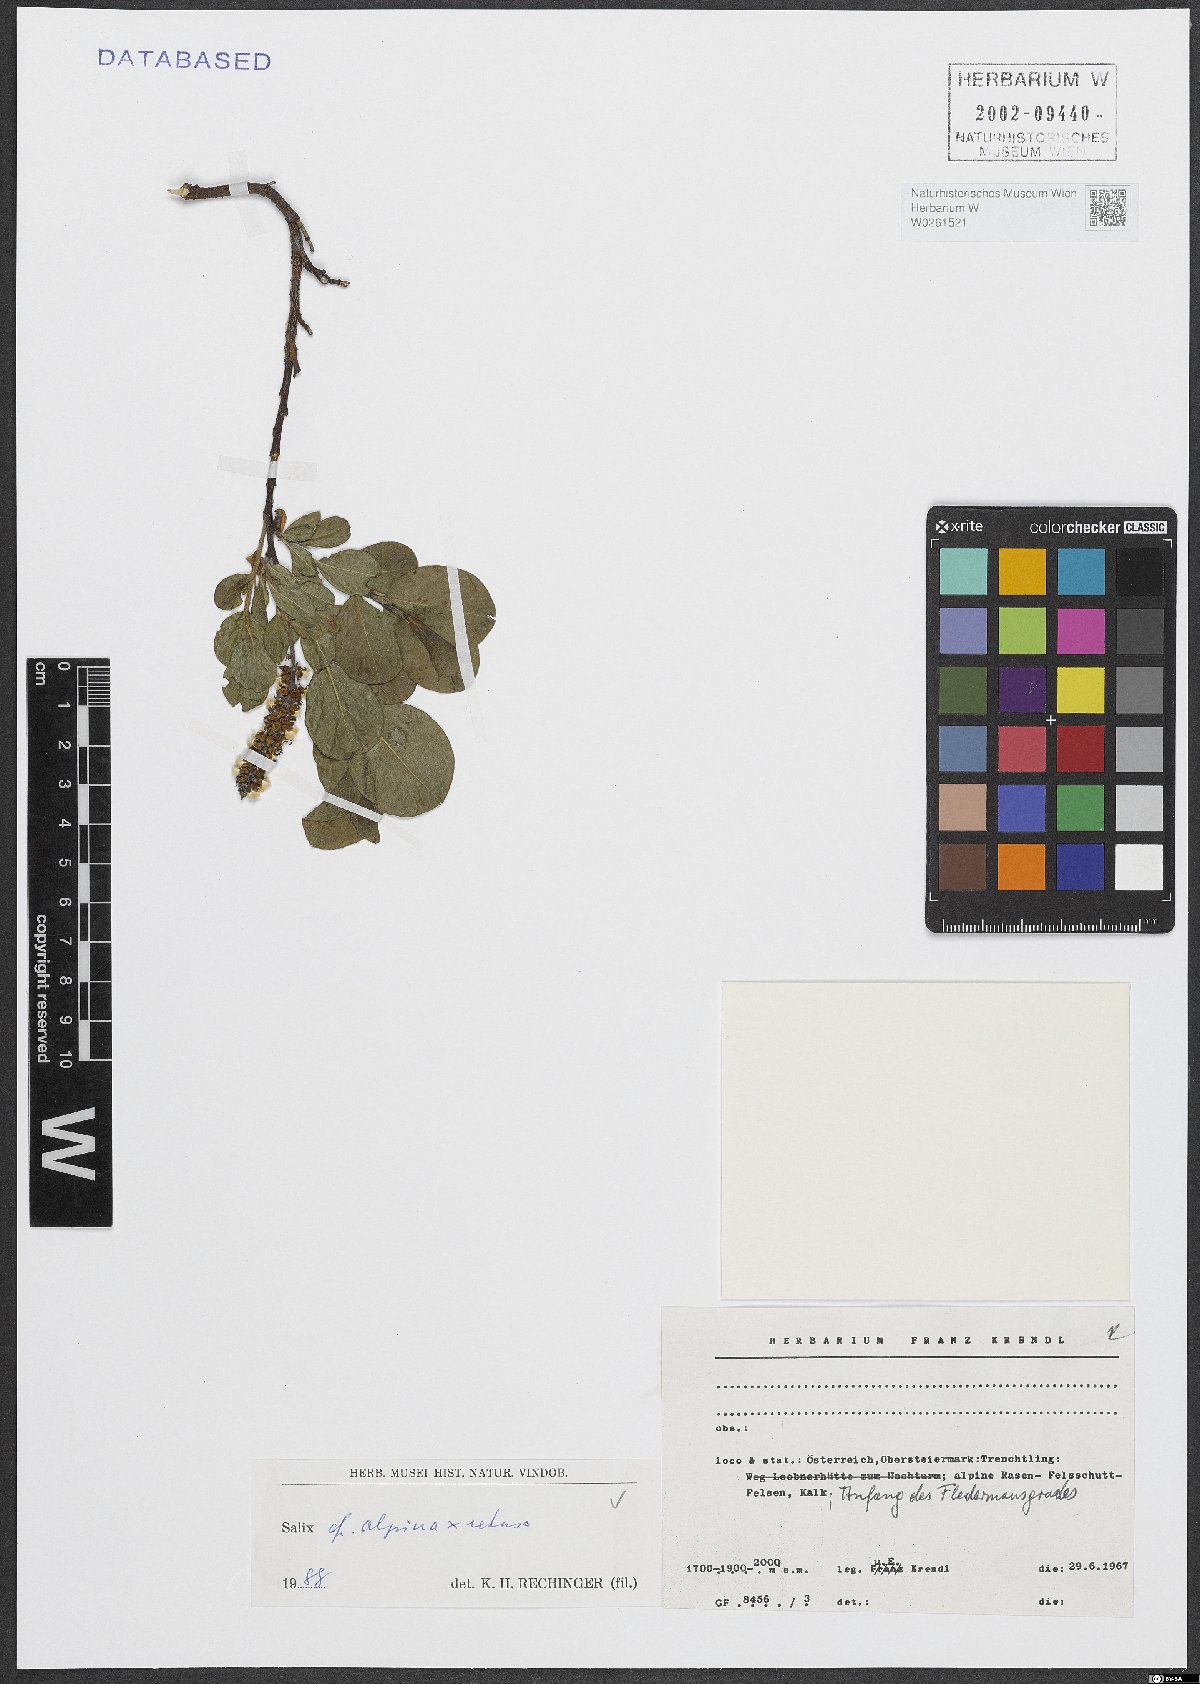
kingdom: Plantae
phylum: Tracheophyta
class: Magnoliopsida
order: Malpighiales
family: Salicaceae
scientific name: Salicaceae
